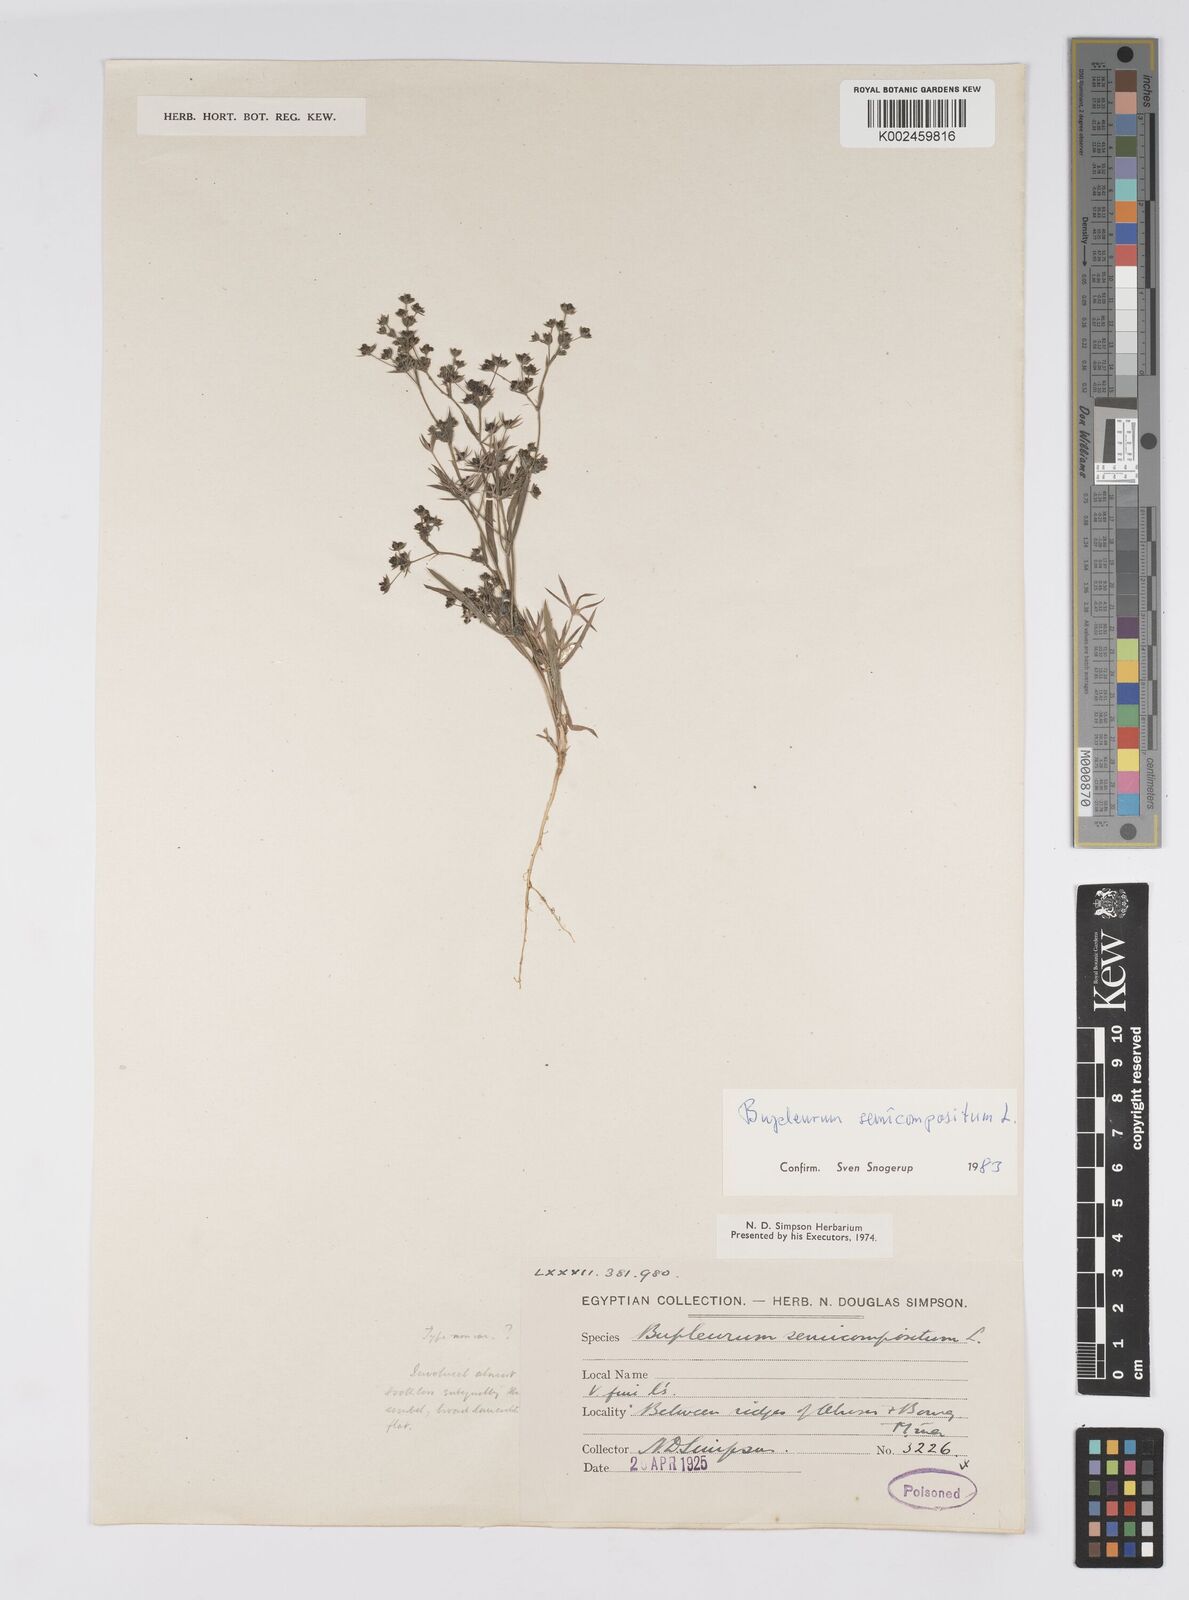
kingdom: Plantae
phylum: Tracheophyta
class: Magnoliopsida
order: Apiales
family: Apiaceae
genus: Bupleurum
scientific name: Bupleurum semicompositum
